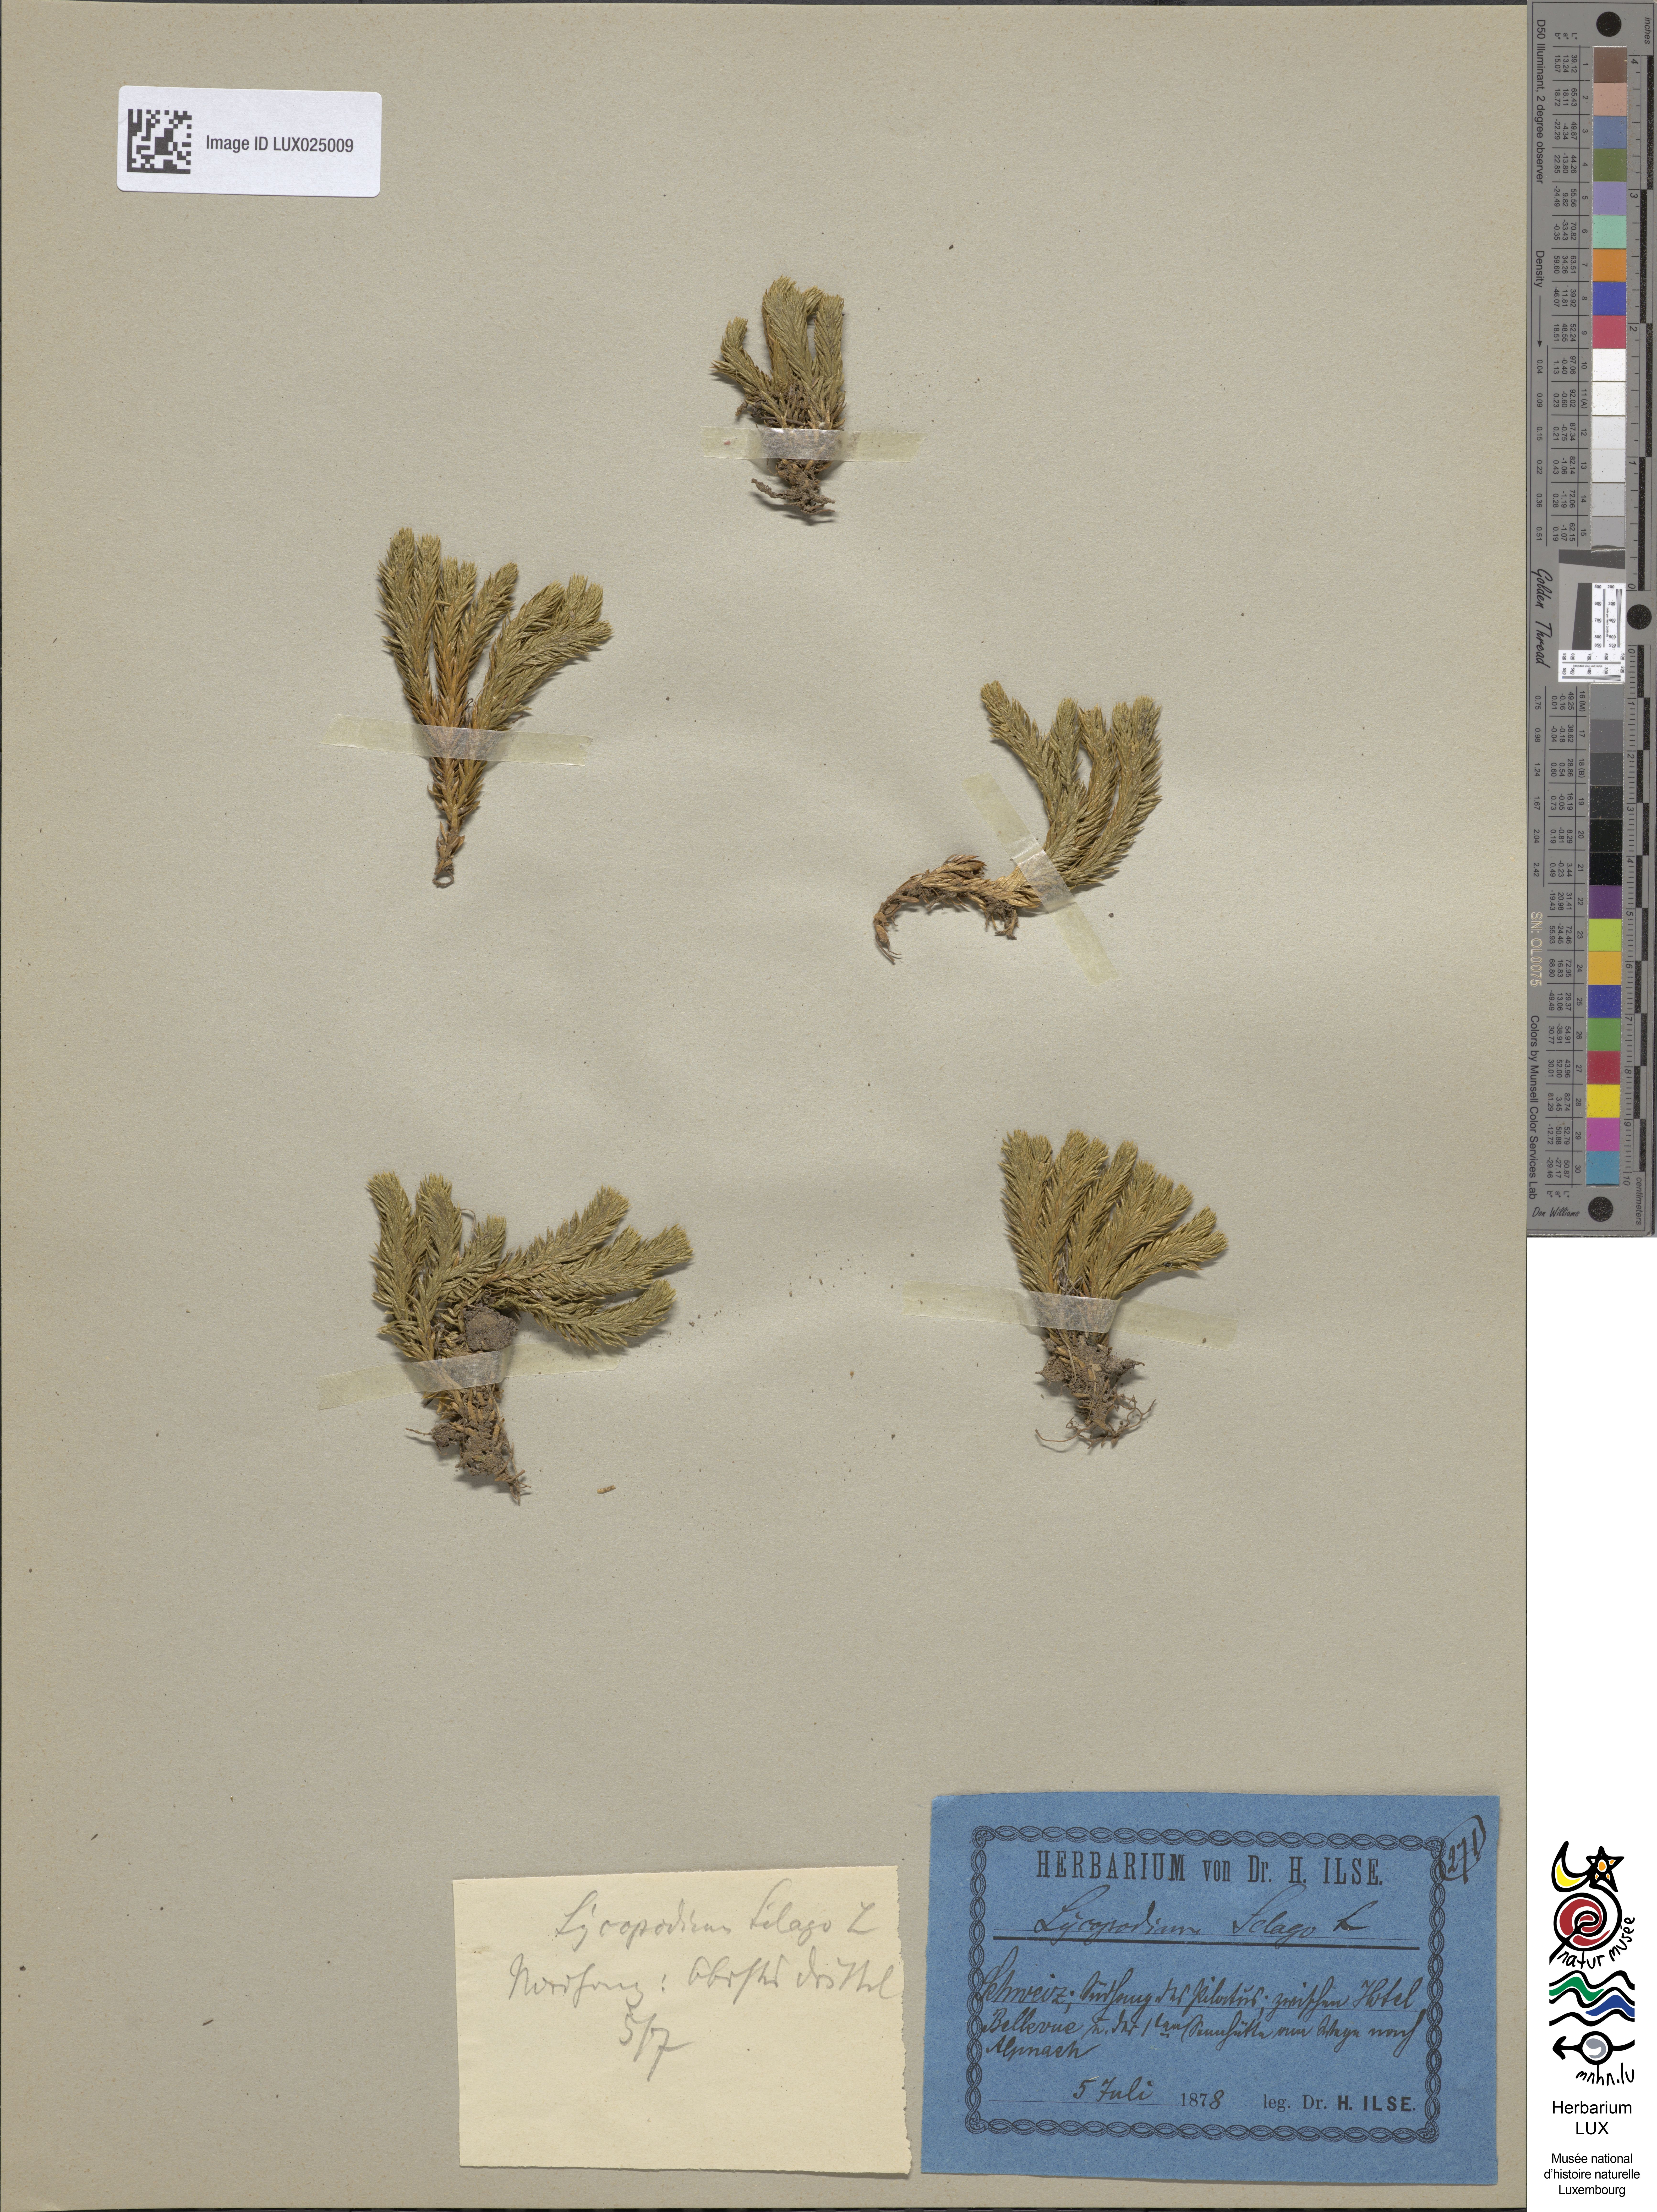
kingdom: Plantae
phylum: Tracheophyta
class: Lycopodiopsida
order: Lycopodiales
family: Lycopodiaceae
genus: Huperzia
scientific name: Huperzia selago
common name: Northern firmoss
